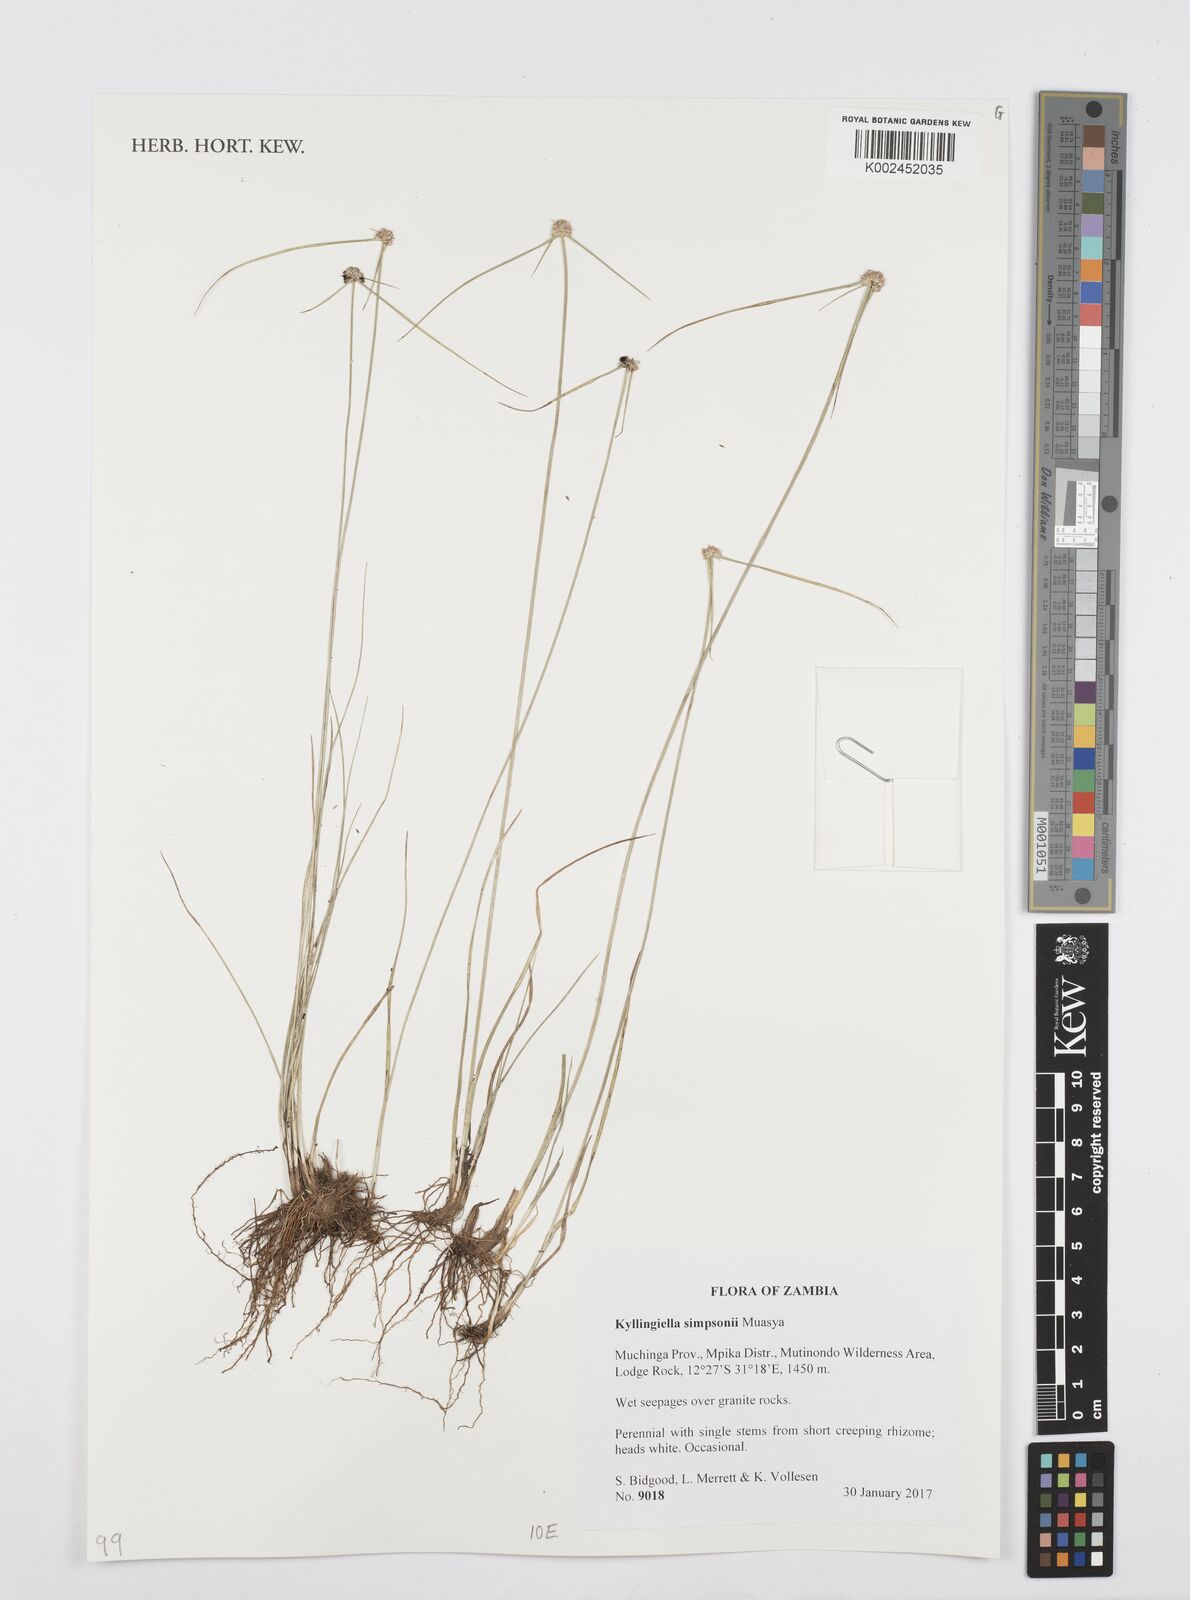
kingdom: Plantae
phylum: Tracheophyta
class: Liliopsida
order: Poales
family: Cyperaceae
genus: Cyperus
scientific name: Cyperus simpsonii
